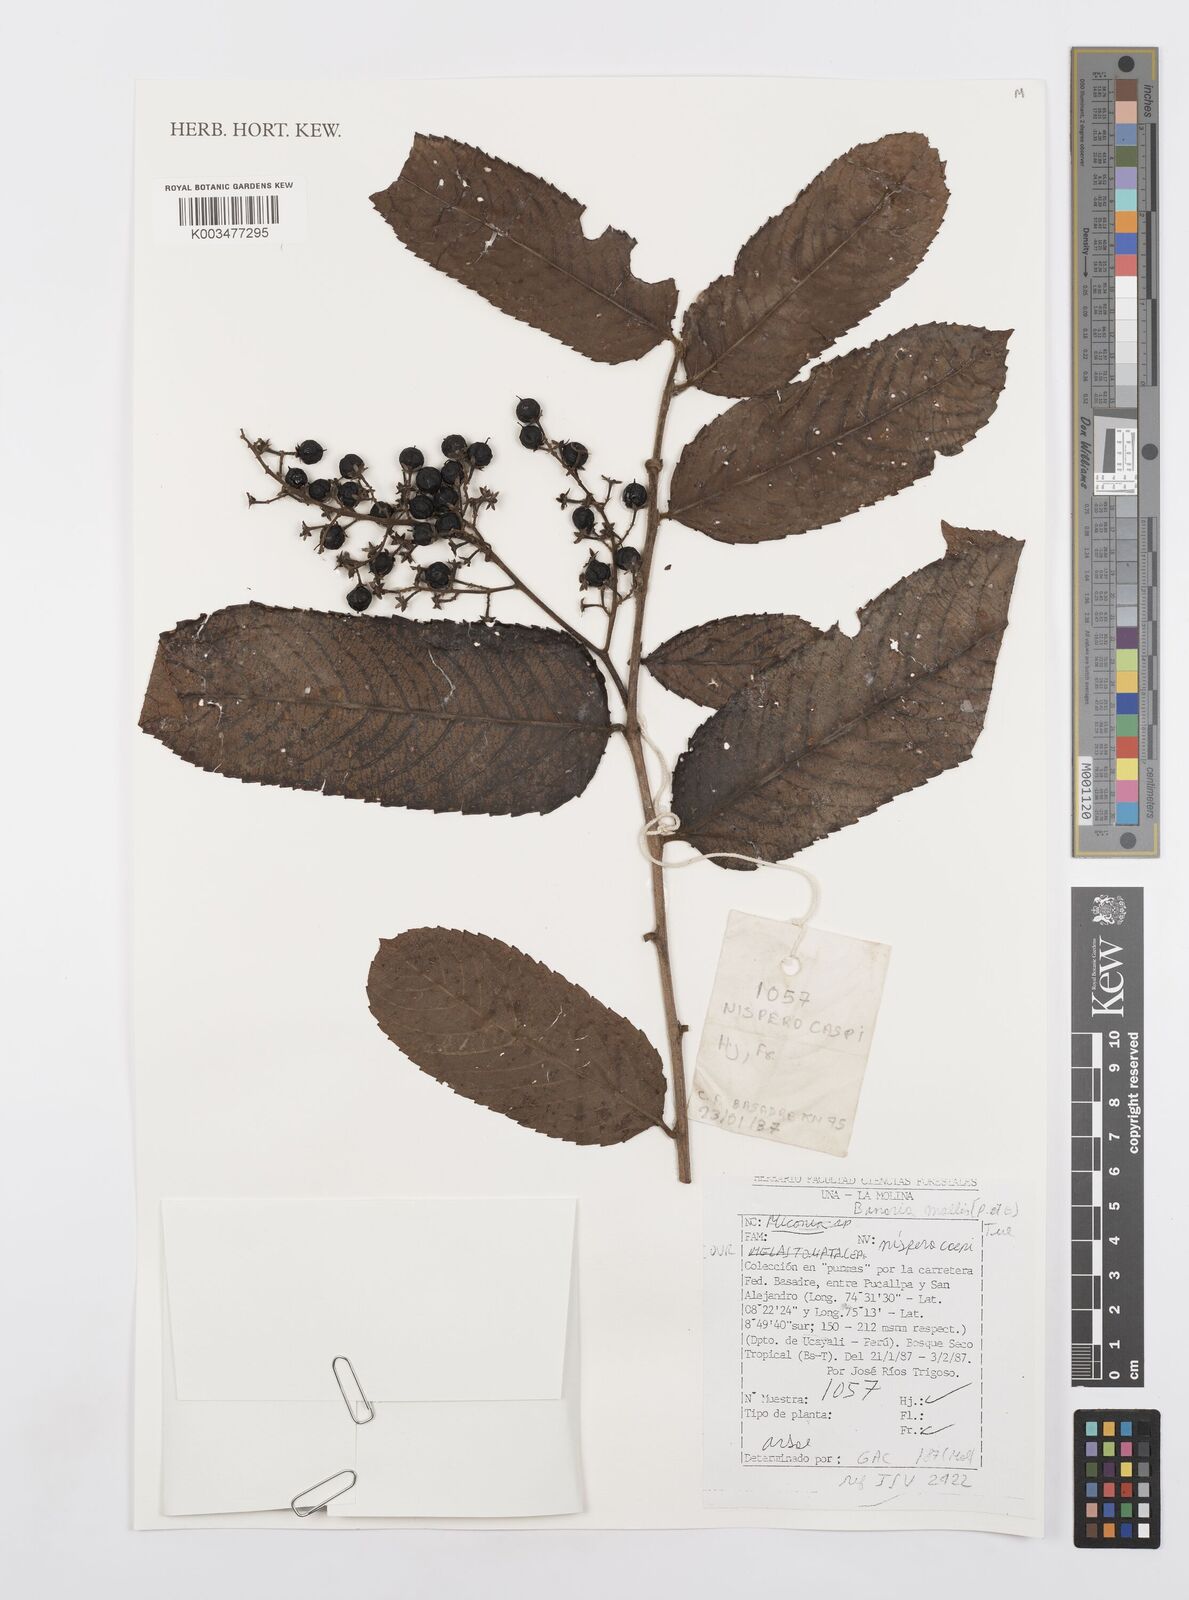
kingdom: Plantae
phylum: Tracheophyta
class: Magnoliopsida
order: Malpighiales
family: Salicaceae
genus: Banara
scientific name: Banara guianensis
